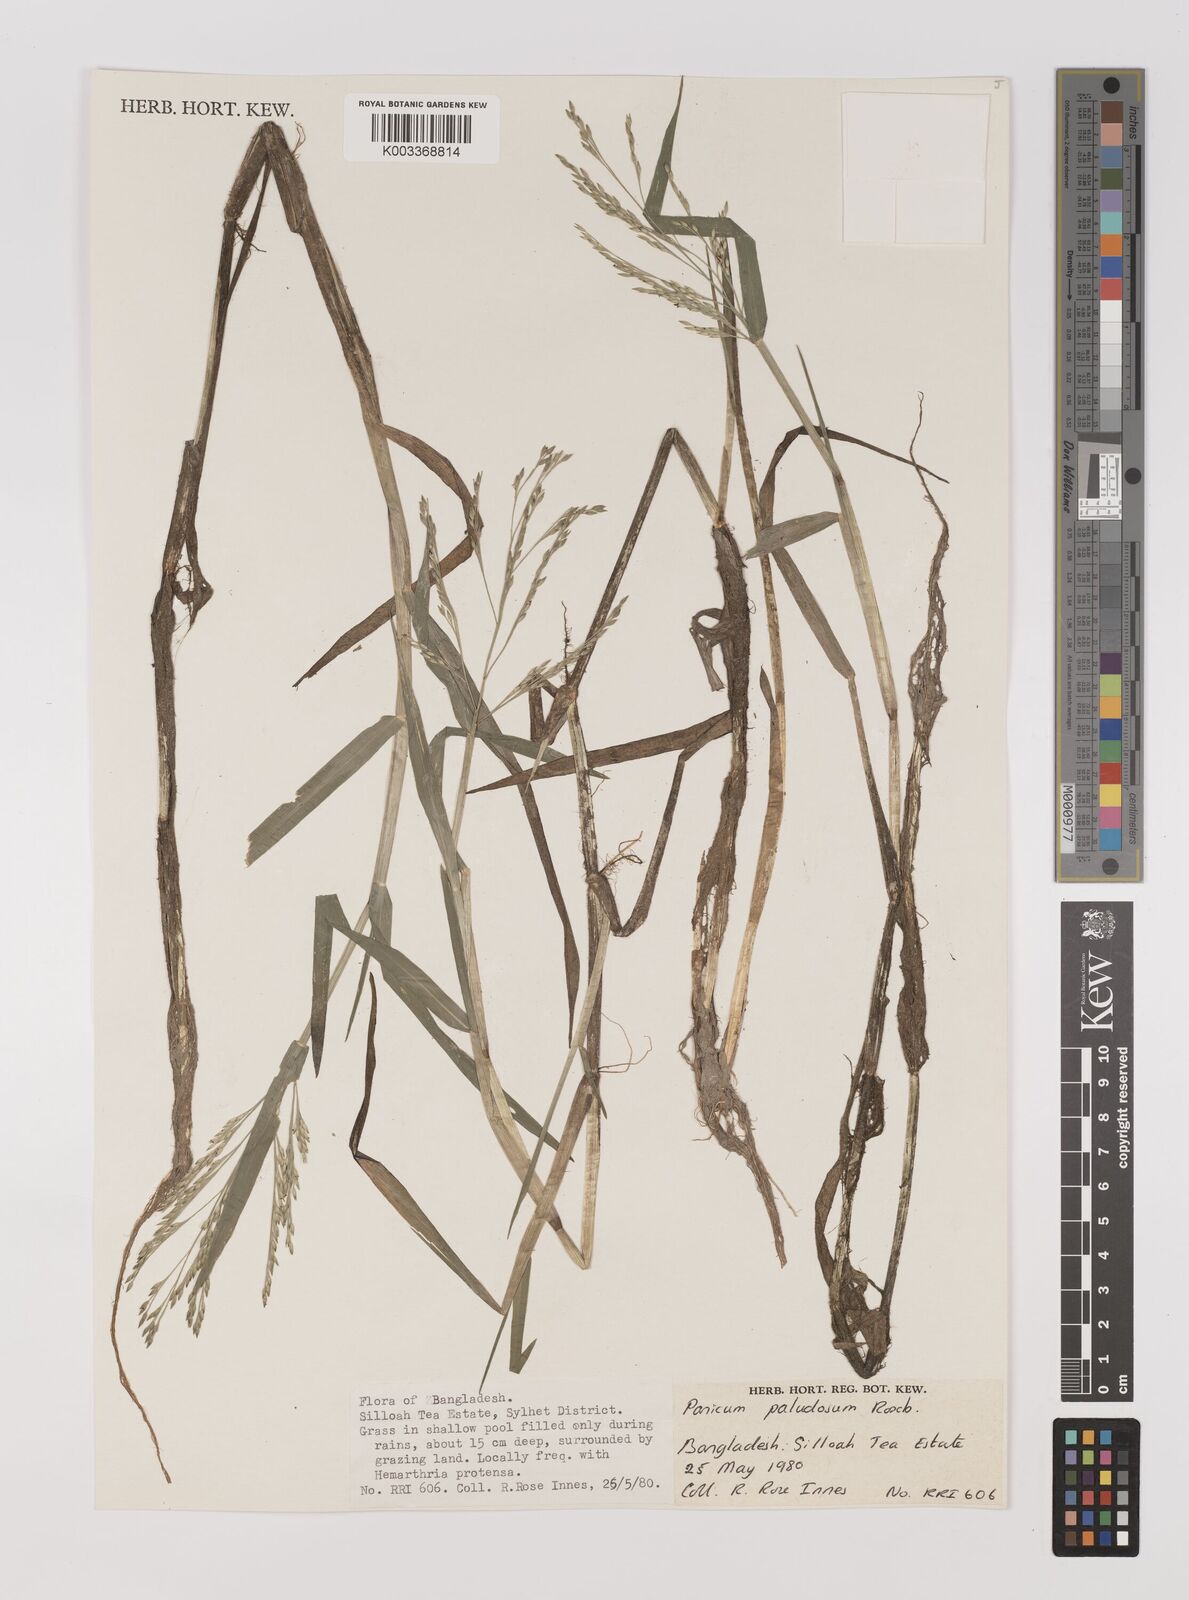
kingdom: Plantae
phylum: Tracheophyta
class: Liliopsida
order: Poales
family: Poaceae
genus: Louisiella
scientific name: Louisiella paludosa
